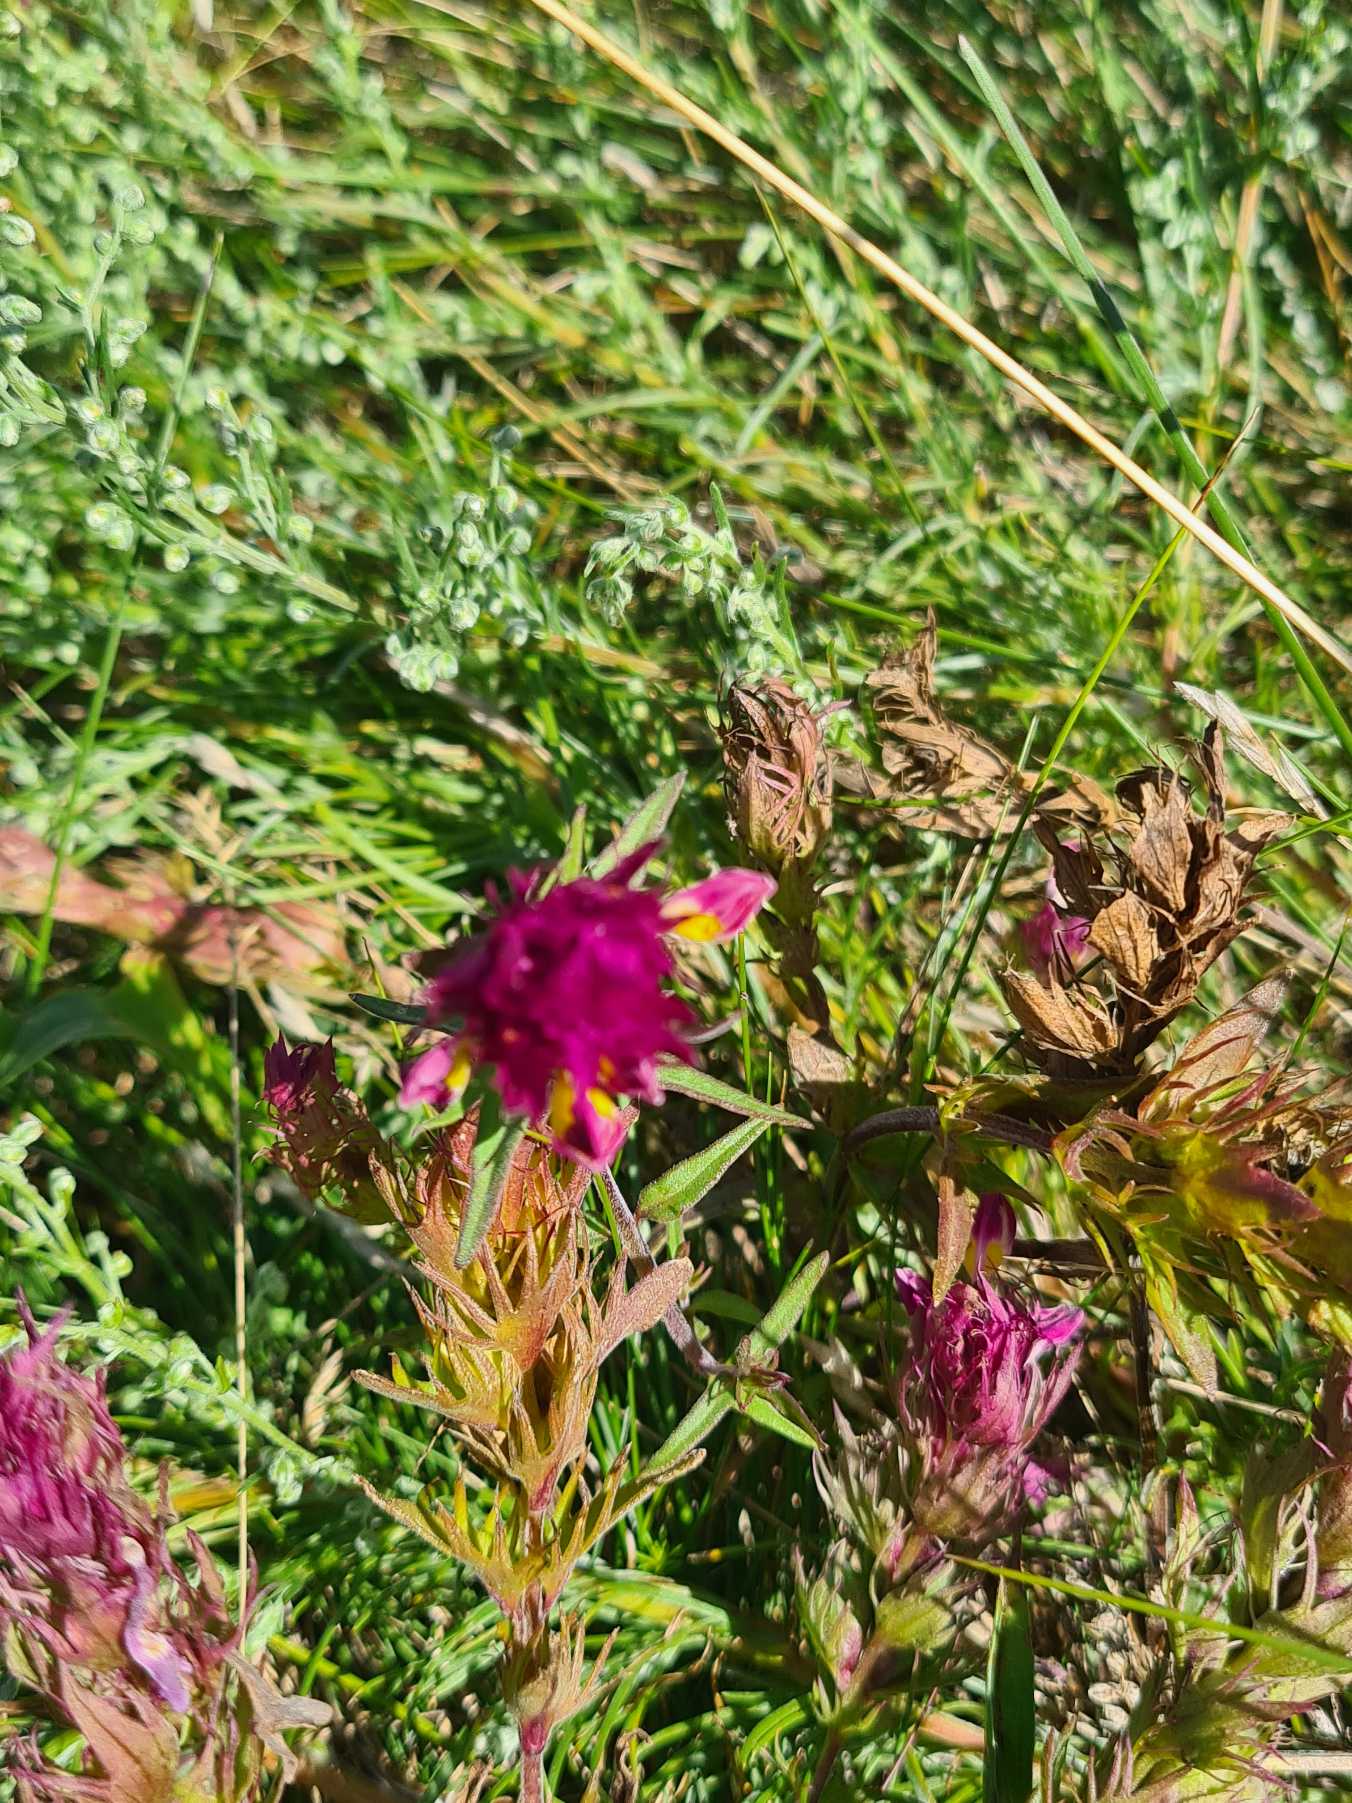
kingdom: Plantae
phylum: Tracheophyta
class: Magnoliopsida
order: Lamiales
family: Orobanchaceae
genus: Melampyrum
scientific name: Melampyrum arvense
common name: Ager-kohvede
